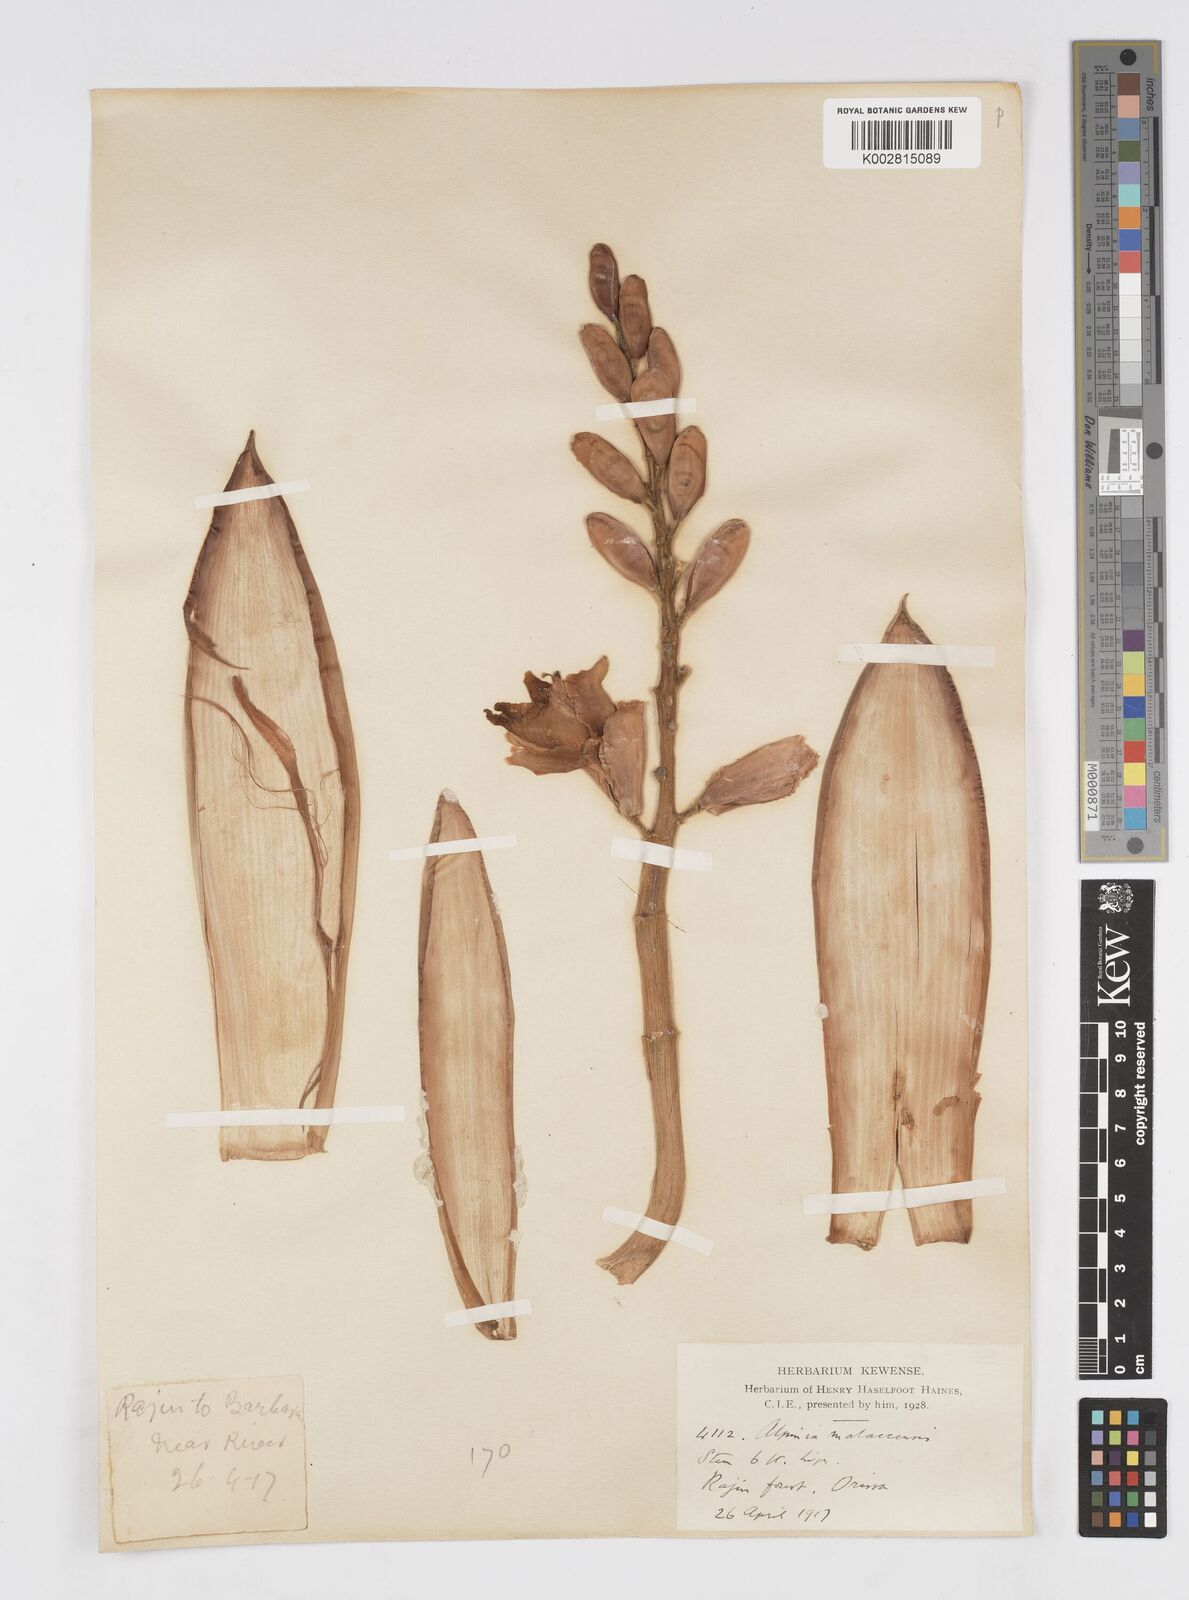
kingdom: Plantae
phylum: Tracheophyta
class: Liliopsida
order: Zingiberales
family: Zingiberaceae
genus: Alpinia
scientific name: Alpinia malaccensis
